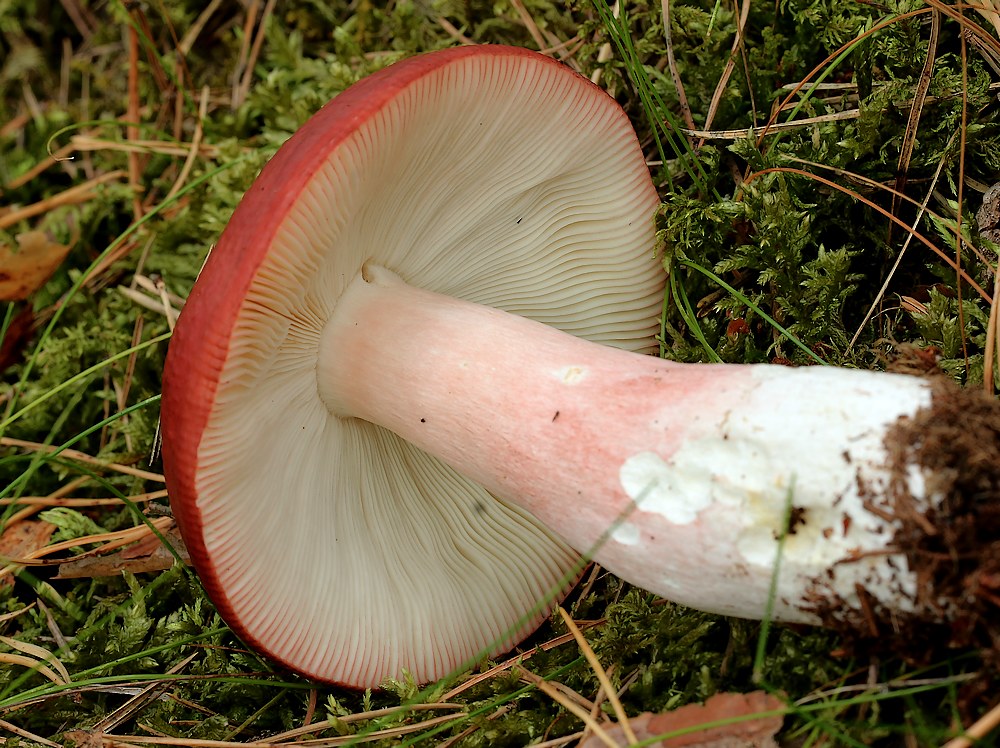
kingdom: Fungi
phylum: Basidiomycota
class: Agaricomycetes
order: Russulales
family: Russulaceae
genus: Russula
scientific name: Russula
